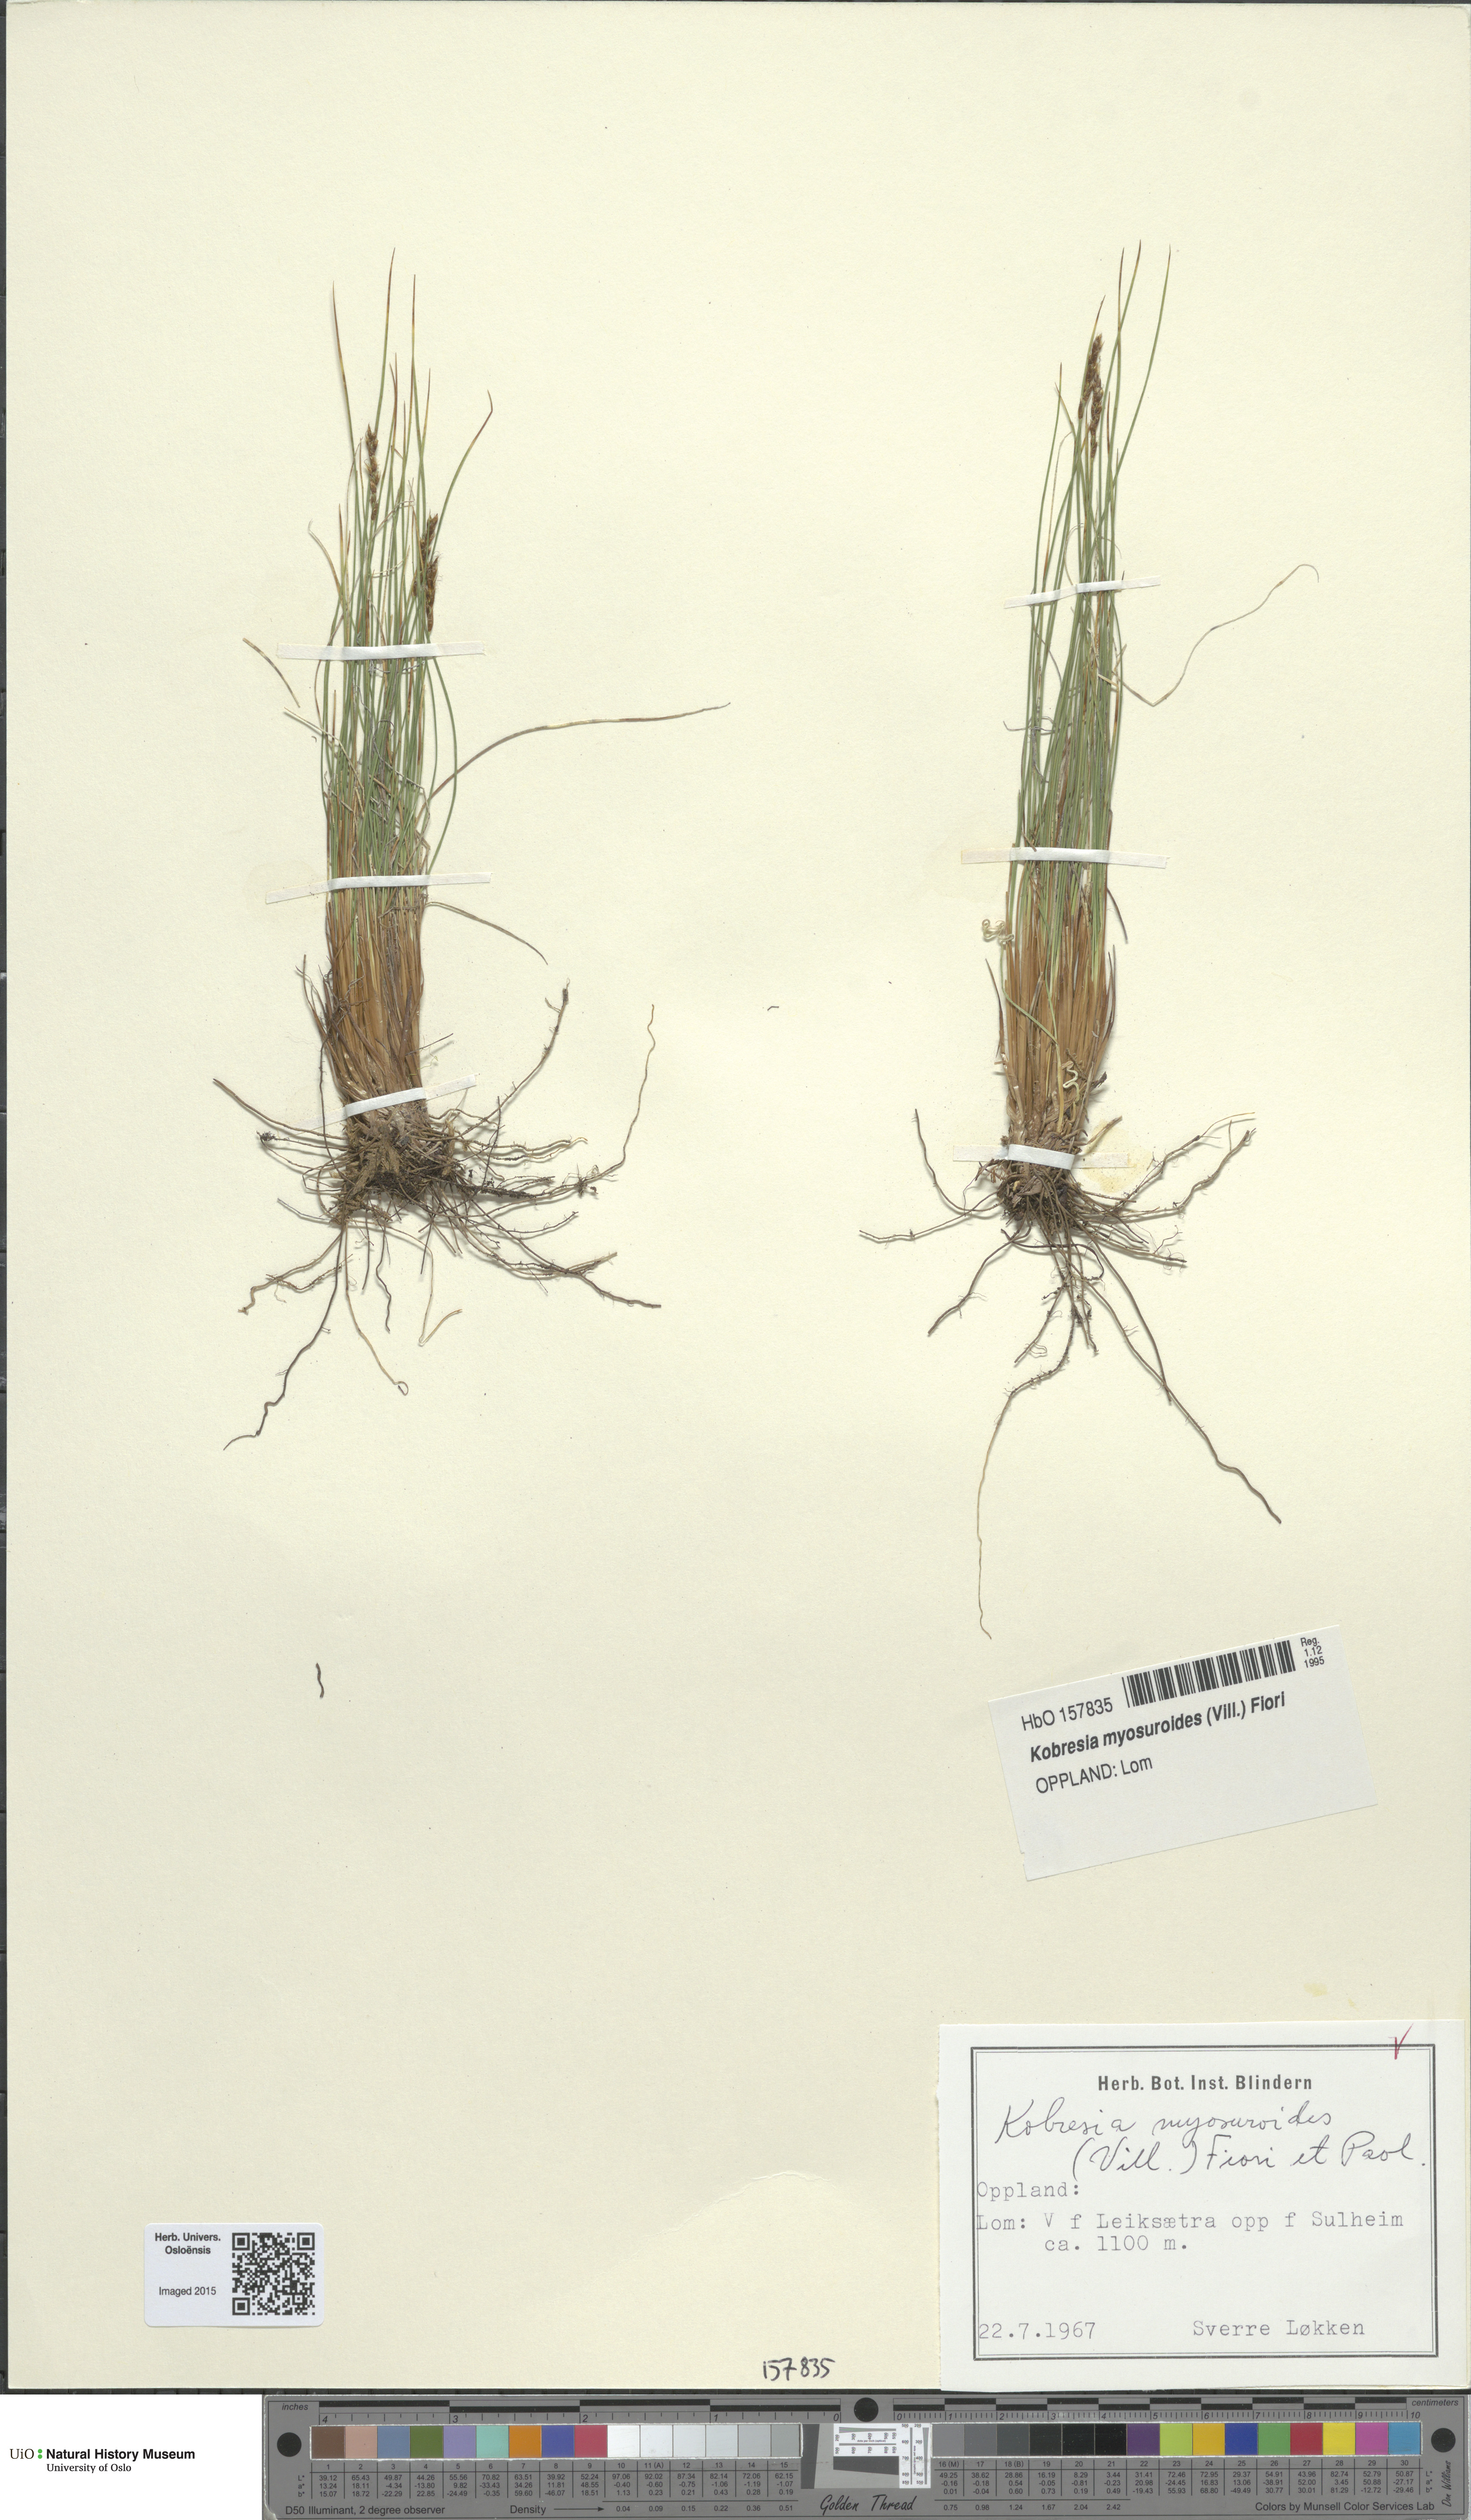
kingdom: Plantae
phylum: Tracheophyta
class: Liliopsida
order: Poales
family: Cyperaceae
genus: Carex
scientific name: Carex myosuroides
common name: Bellard's bog sedge
